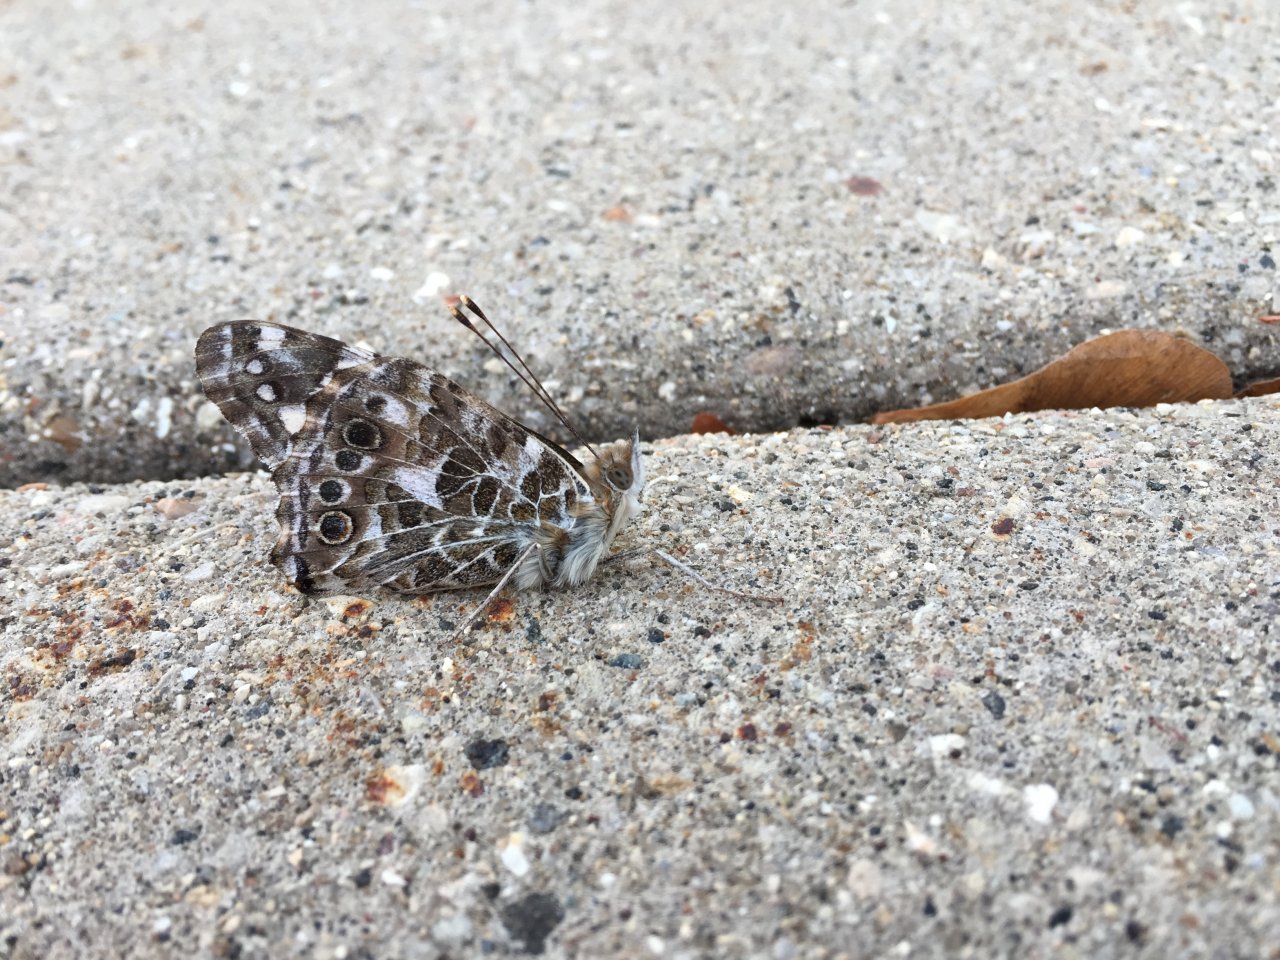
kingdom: Animalia
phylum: Arthropoda
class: Insecta
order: Lepidoptera
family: Nymphalidae
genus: Vanessa
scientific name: Vanessa cardui
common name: Painted Lady
